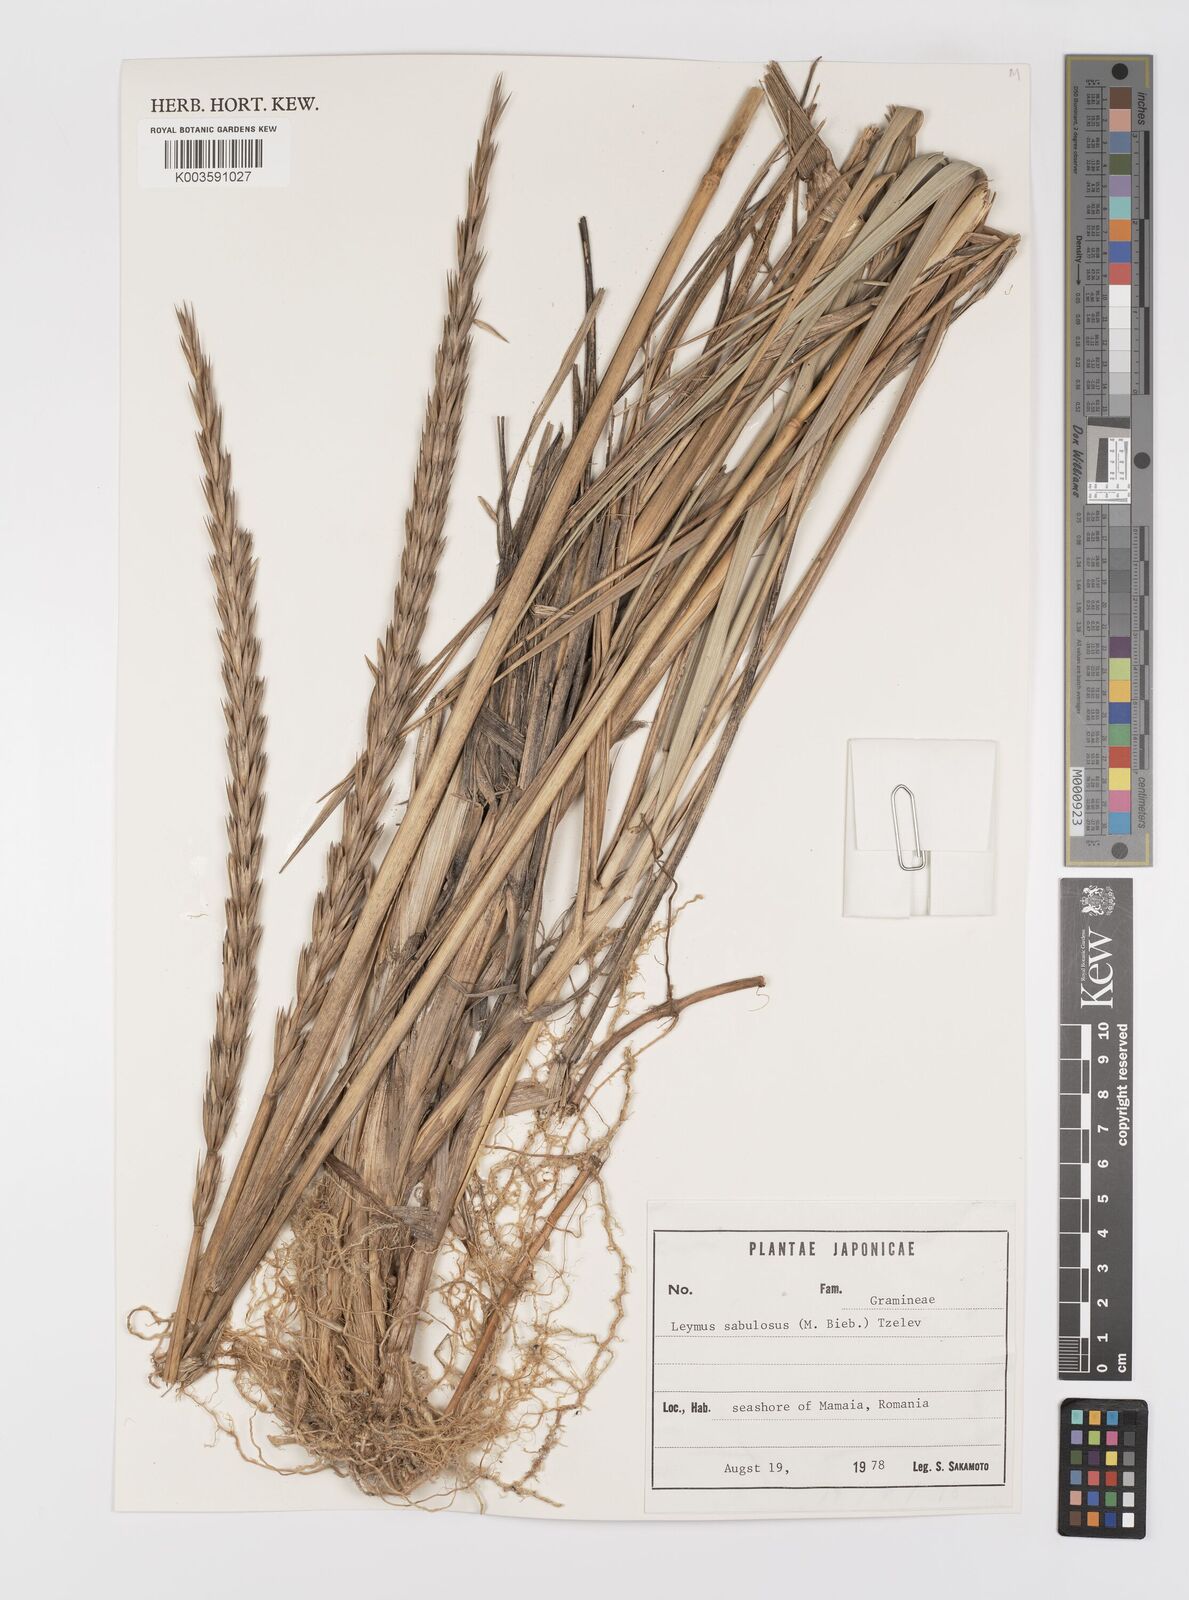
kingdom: Plantae
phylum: Tracheophyta
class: Liliopsida
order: Poales
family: Poaceae
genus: Leymus
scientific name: Leymus racemosus
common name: Mammoth wildrye
